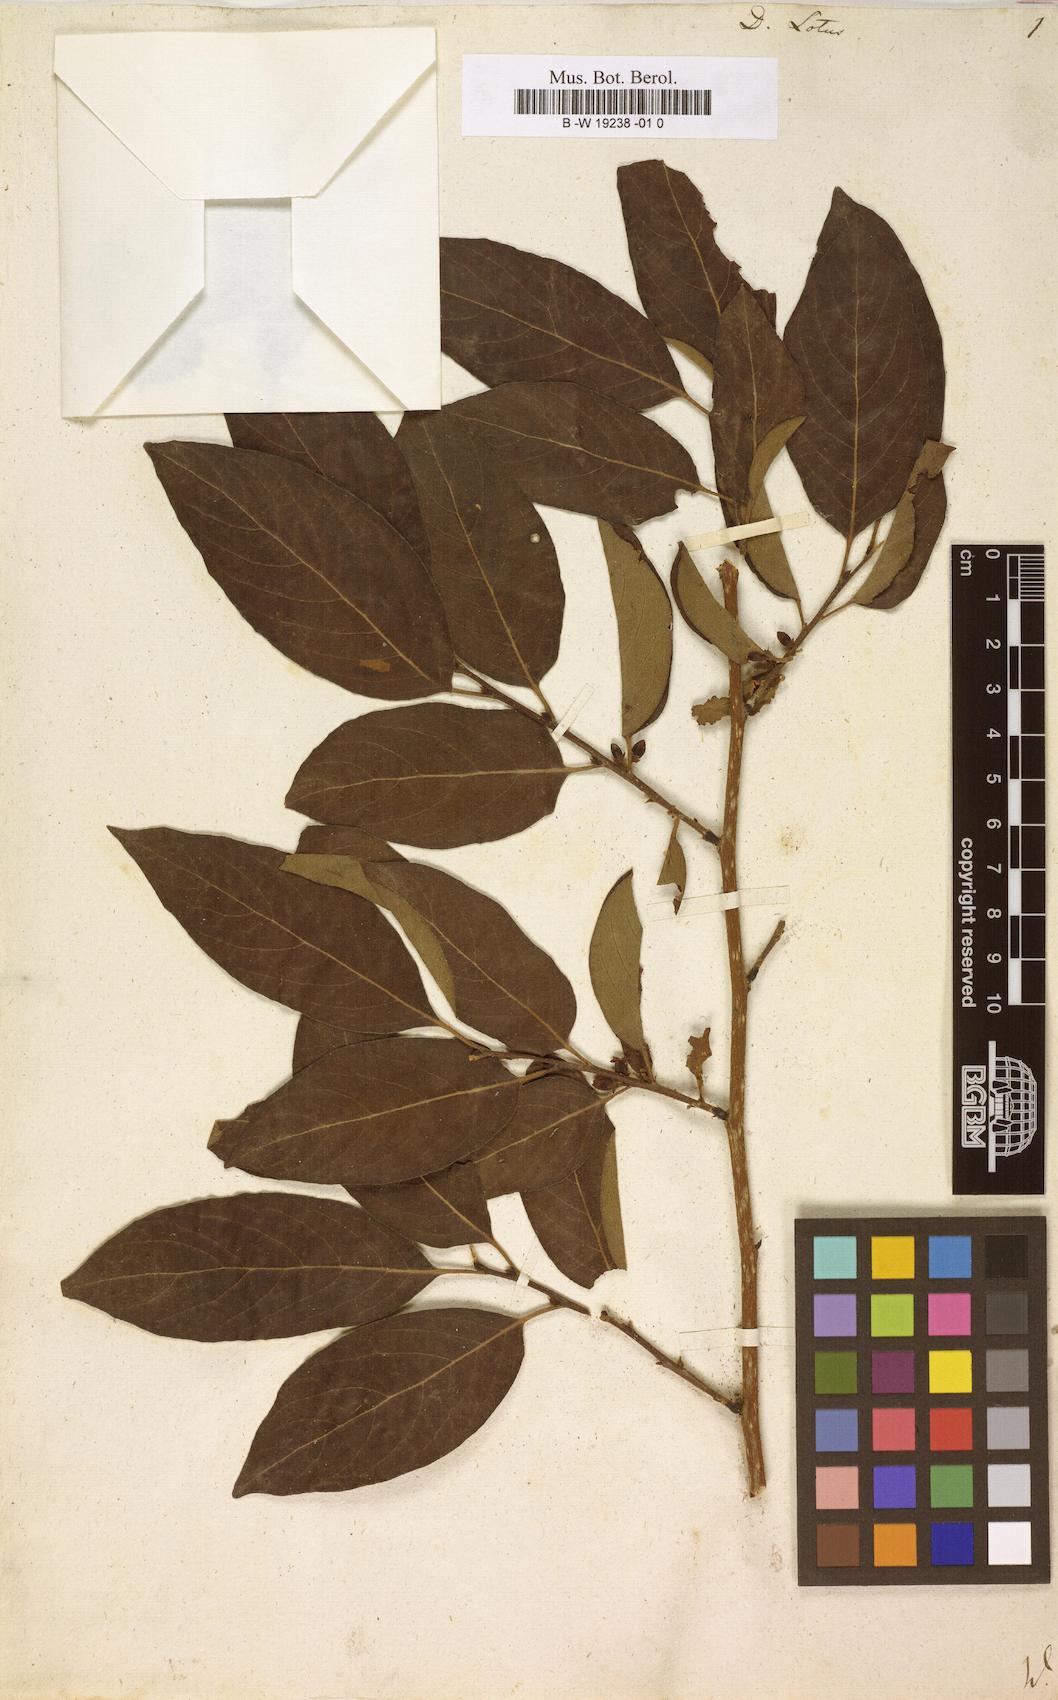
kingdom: Plantae
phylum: Tracheophyta
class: Magnoliopsida
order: Ericales
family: Ebenaceae
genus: Diospyros
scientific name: Diospyros lotus
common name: Date-plum
